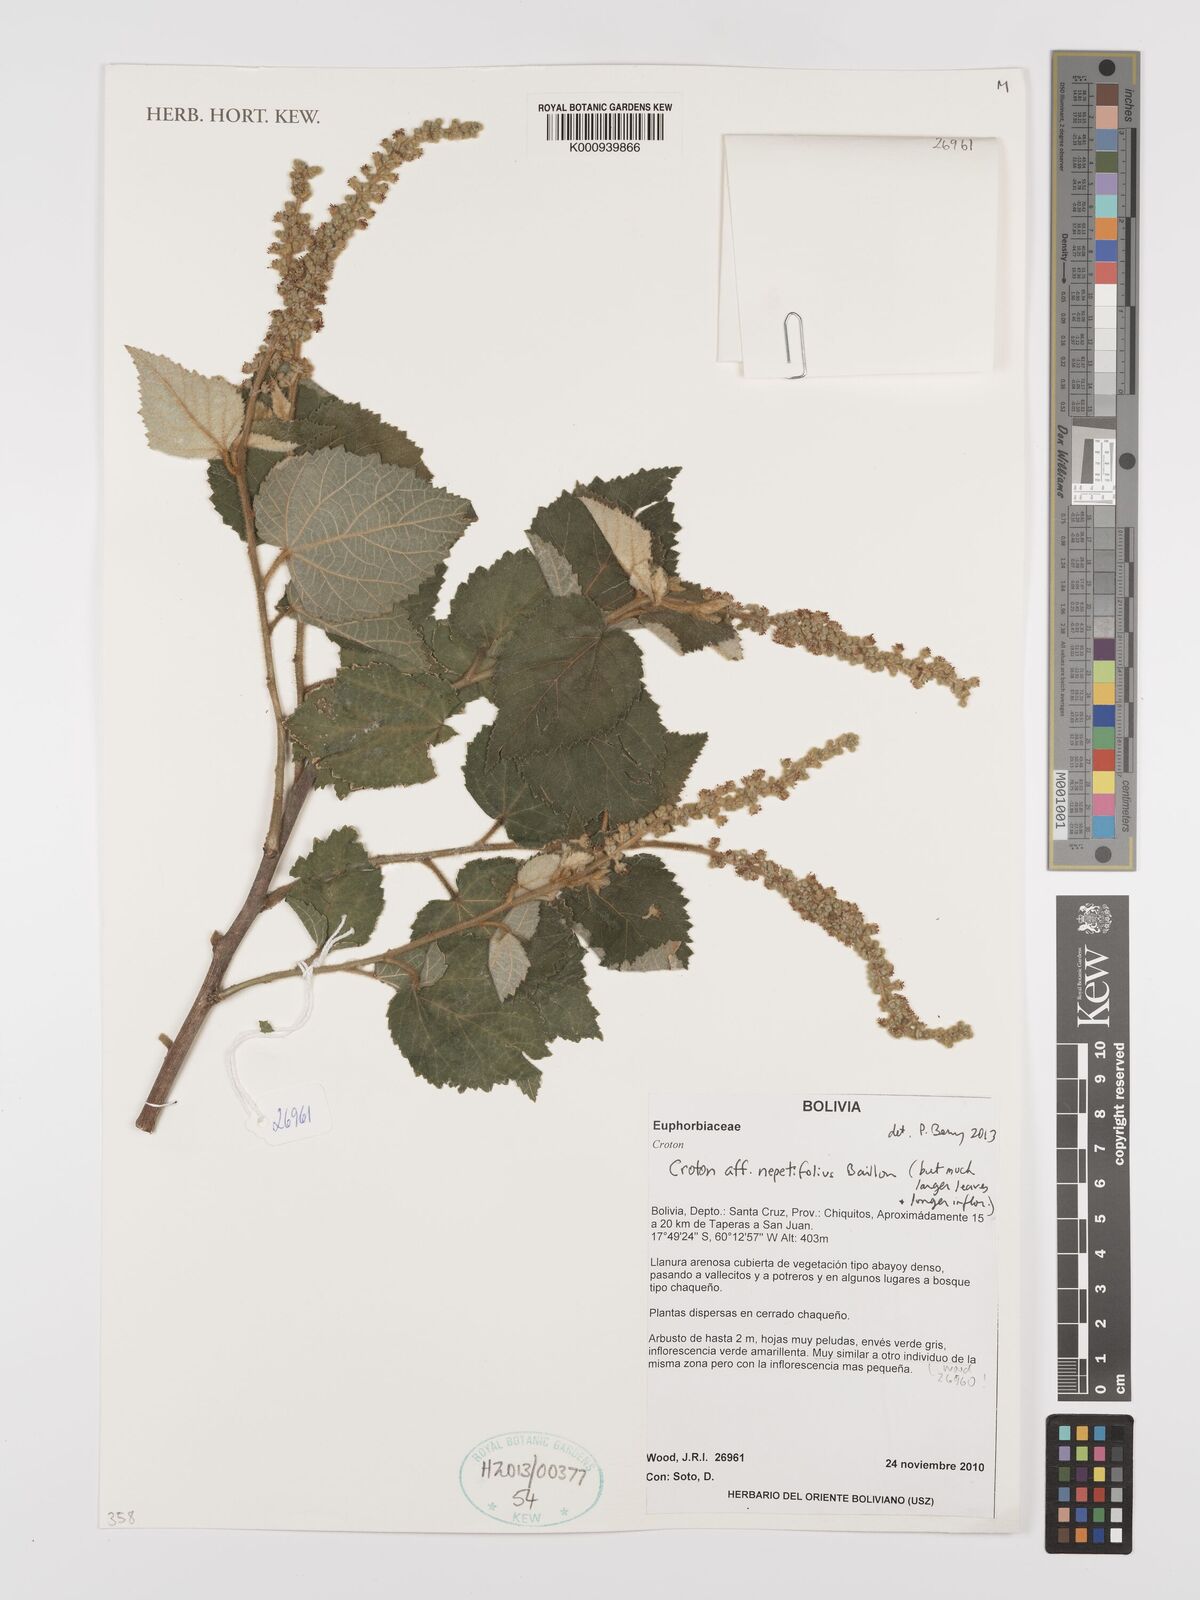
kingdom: Plantae
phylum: Tracheophyta
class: Magnoliopsida
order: Malpighiales
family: Euphorbiaceae
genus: Croton
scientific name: Croton nepetifolius
